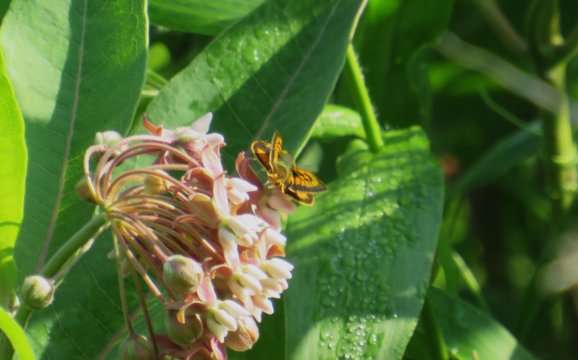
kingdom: Animalia
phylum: Arthropoda
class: Insecta
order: Lepidoptera
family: Hesperiidae
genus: Atrytone
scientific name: Atrytone delaware
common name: Delaware Skipper
